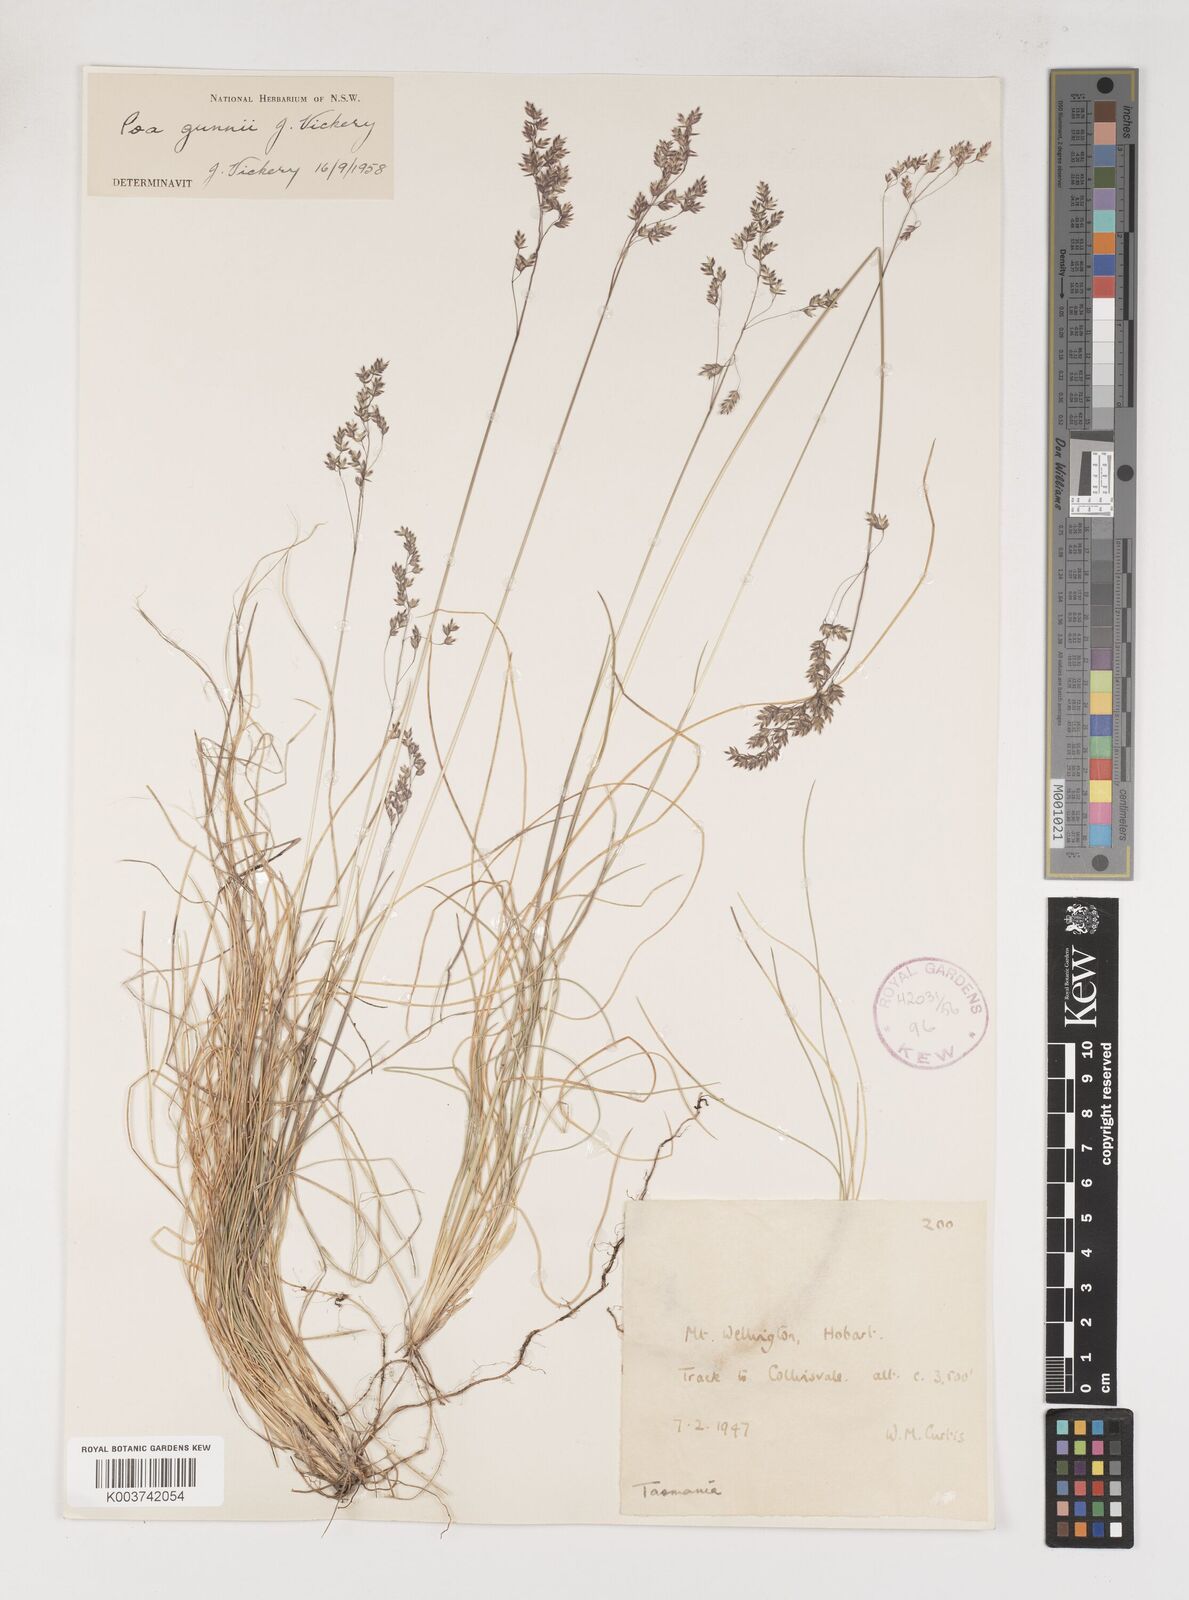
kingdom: Plantae
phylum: Tracheophyta
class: Liliopsida
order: Poales
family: Poaceae
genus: Poa
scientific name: Poa gunnii
